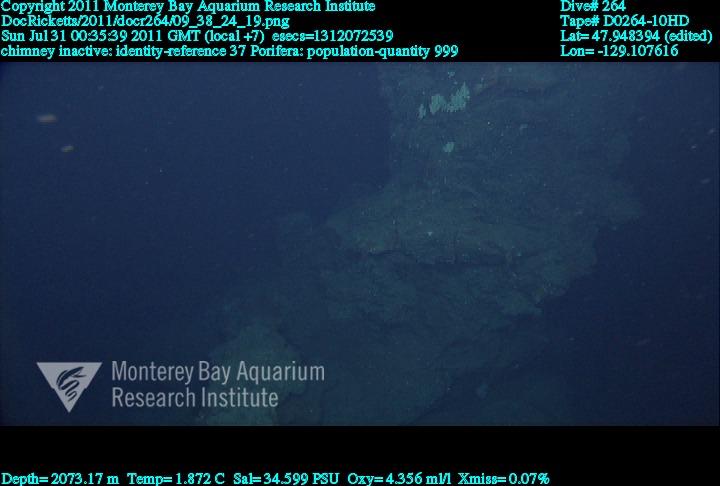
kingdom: Animalia
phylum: Porifera
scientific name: Porifera
